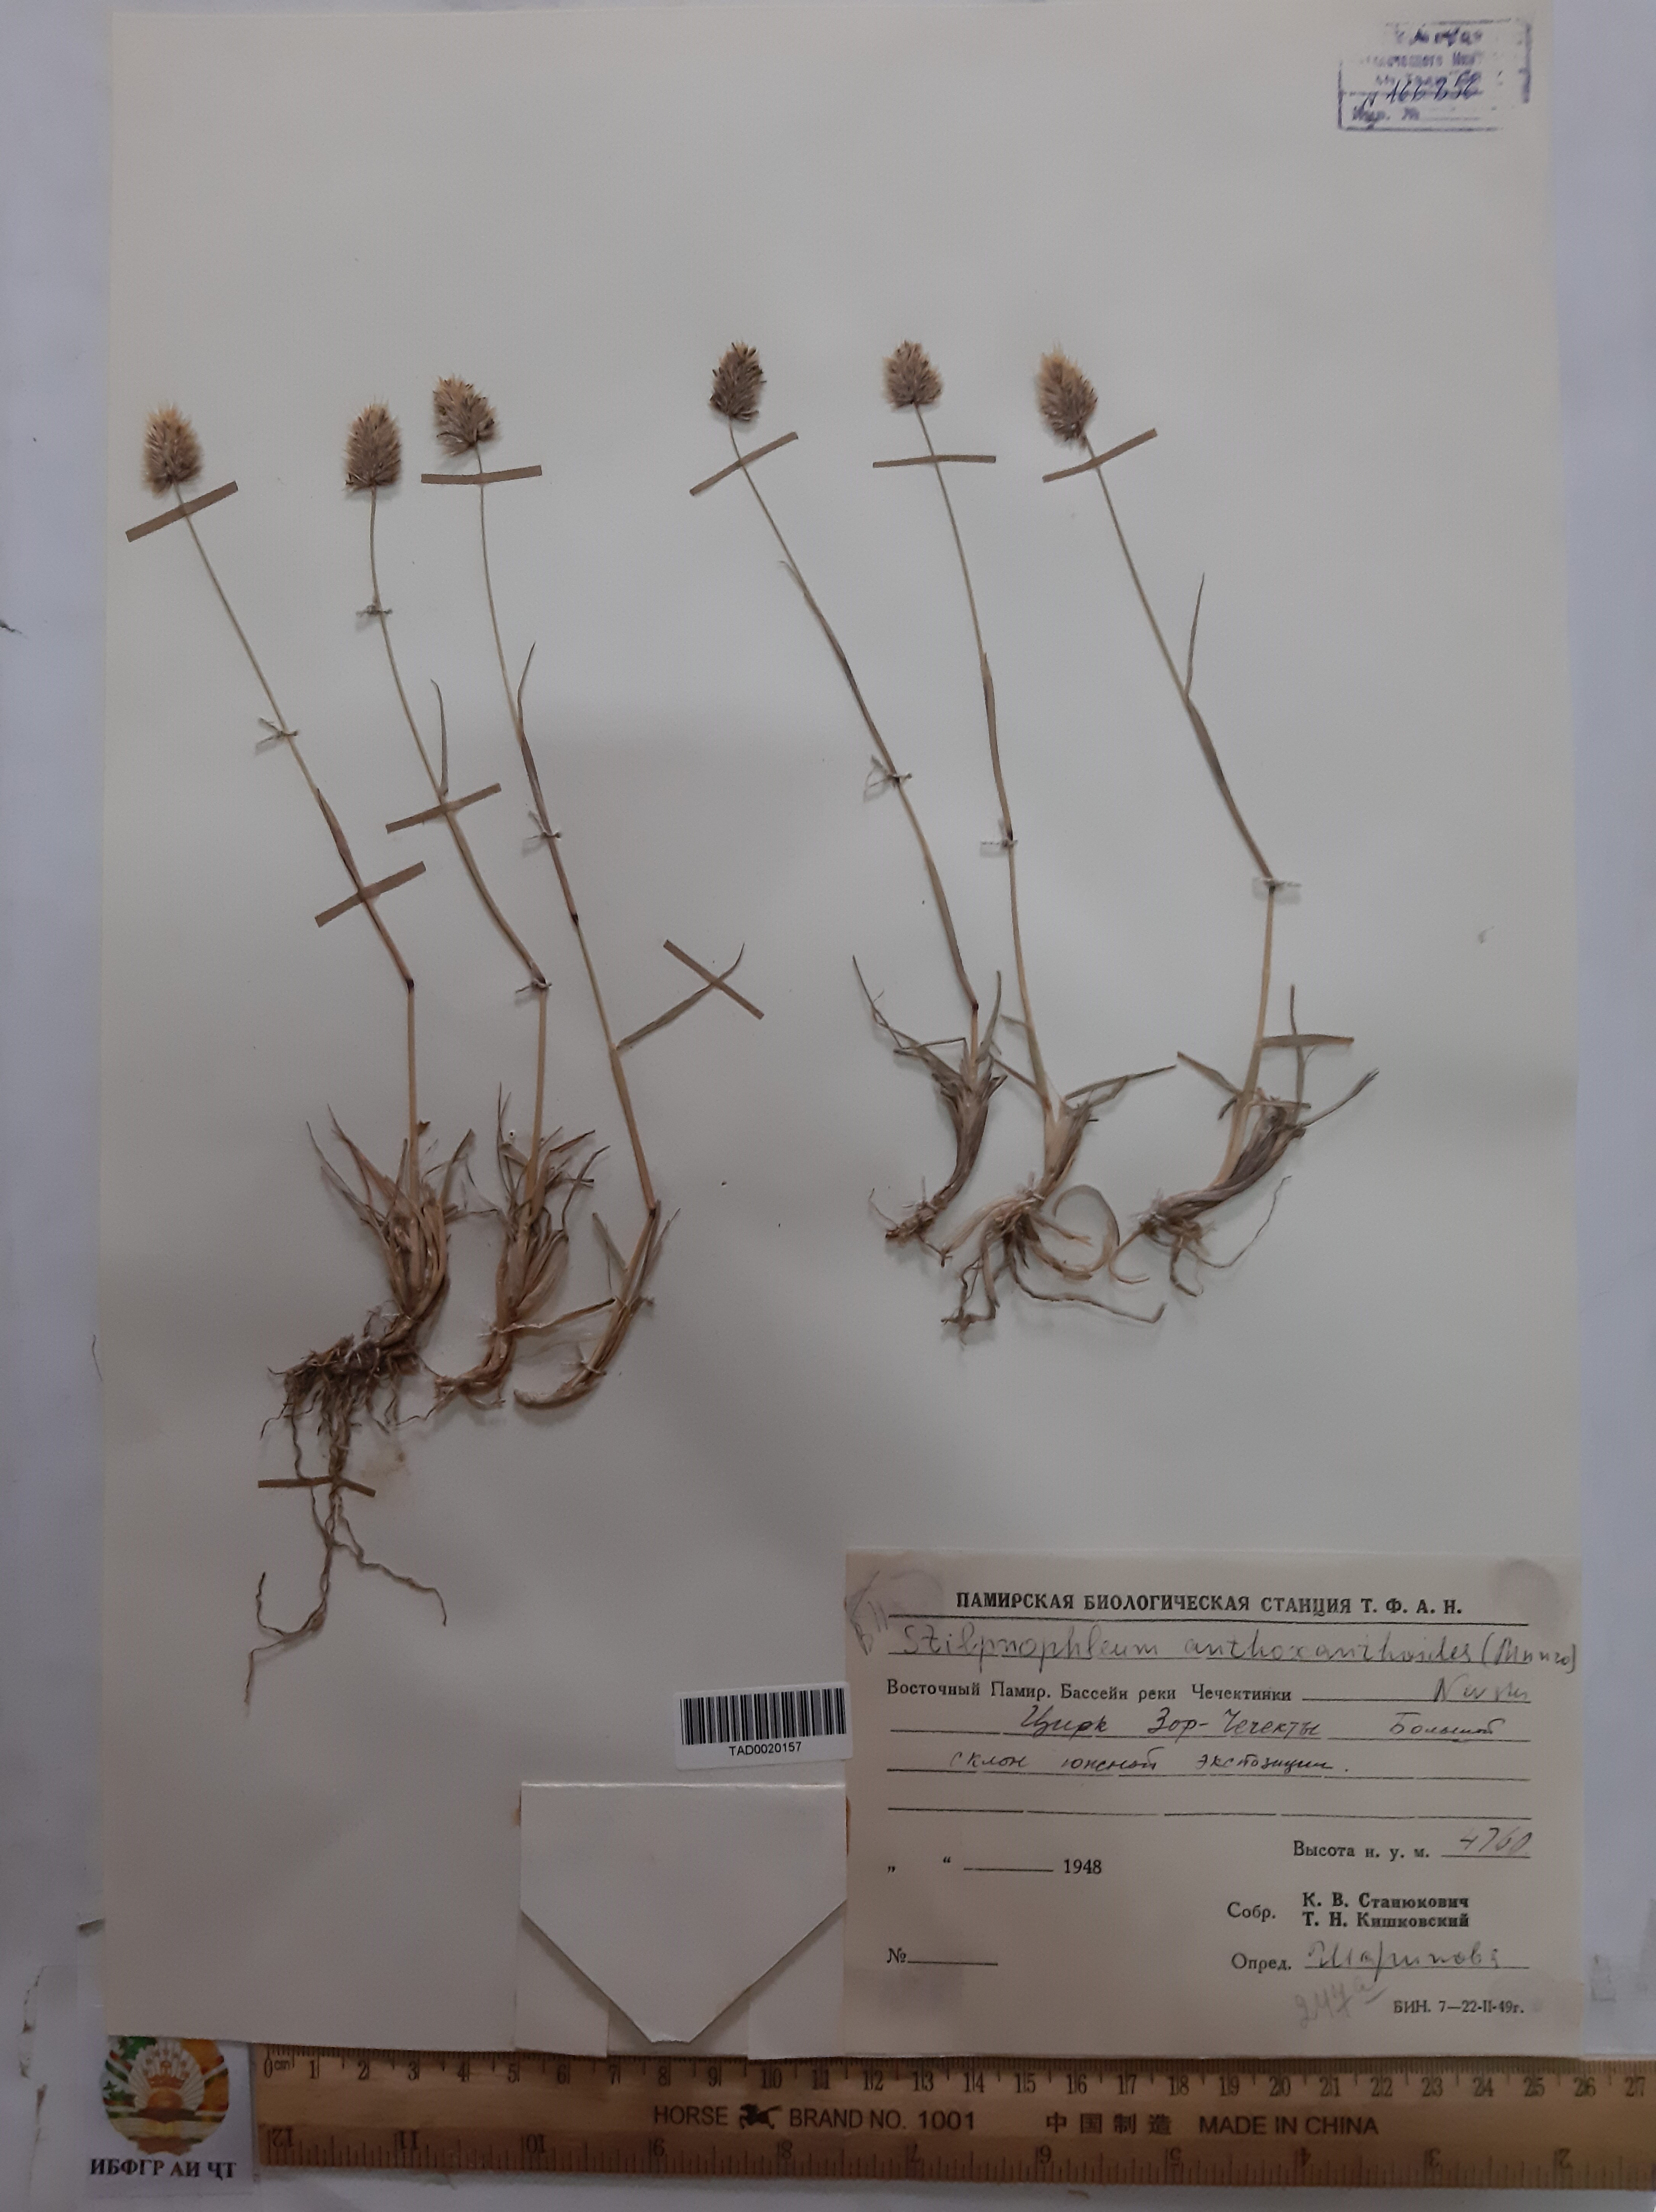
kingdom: Plantae
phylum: Tracheophyta
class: Liliopsida
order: Poales
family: Poaceae
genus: Calamagrostis
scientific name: Calamagrostis anthoxanthoides
